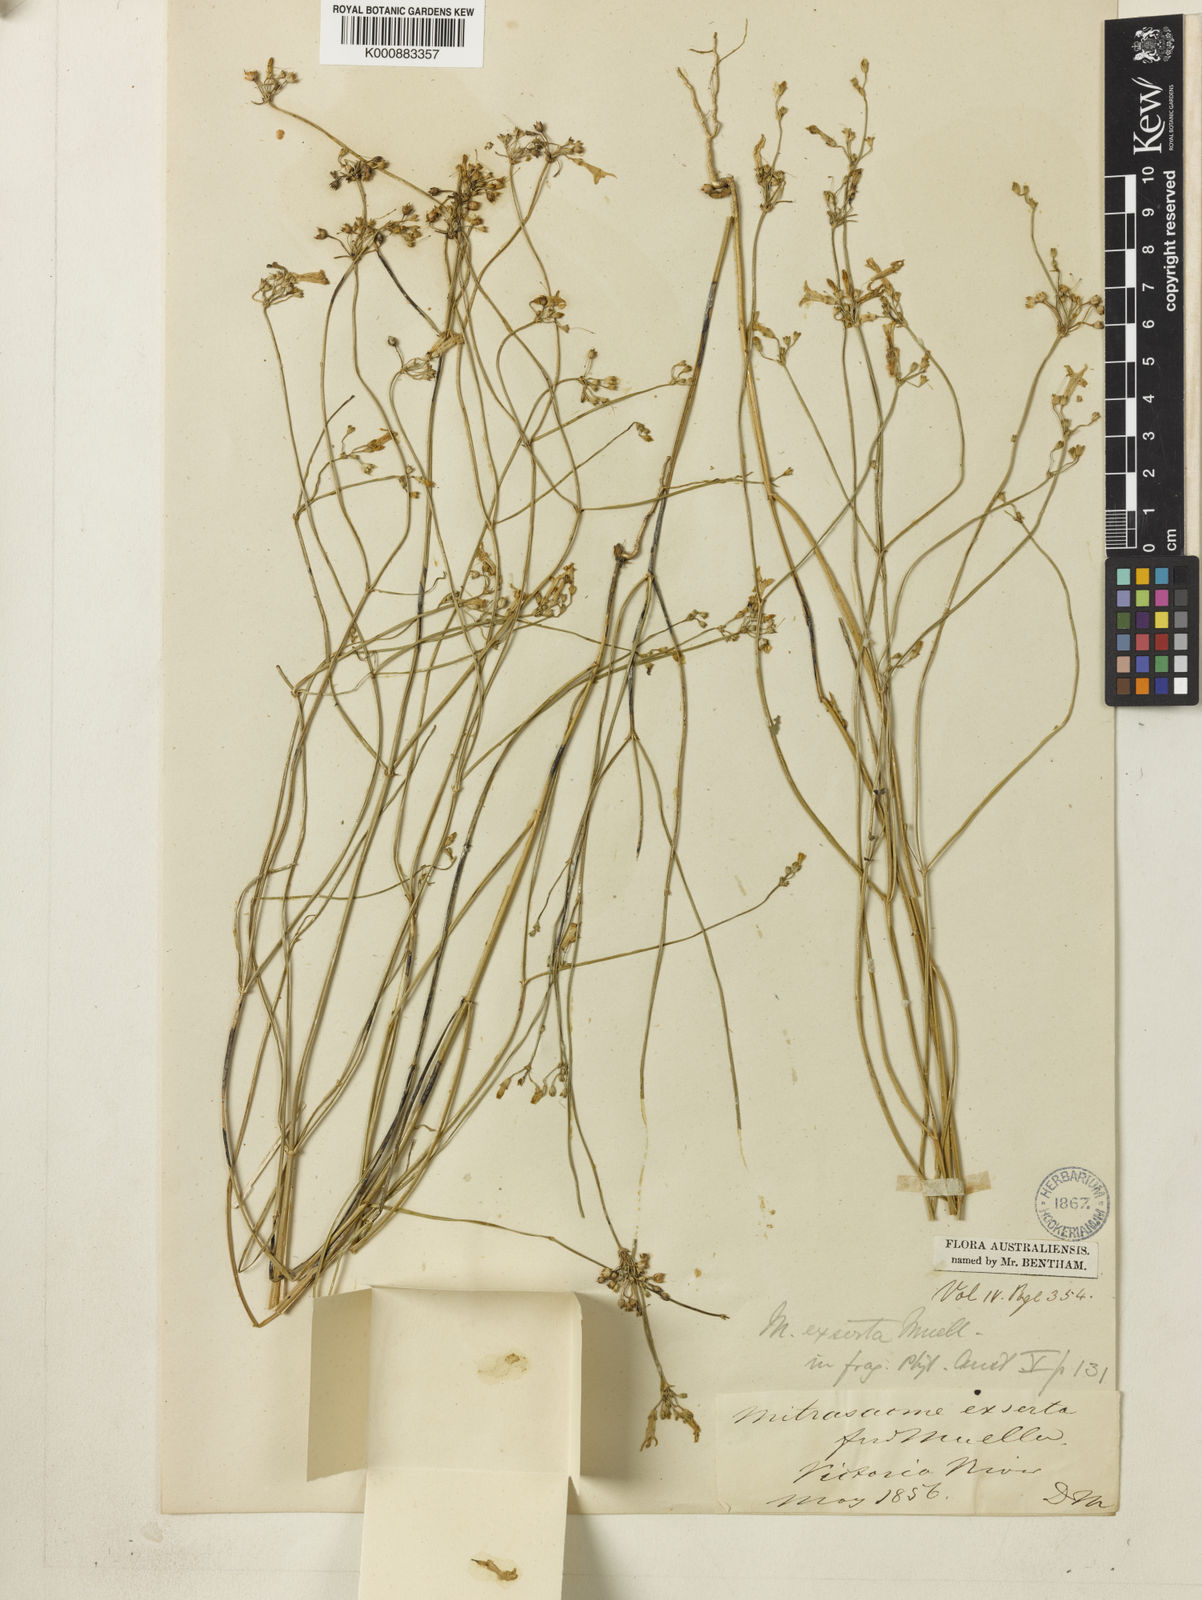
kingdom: Plantae
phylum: Tracheophyta
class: Magnoliopsida
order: Gentianales
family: Loganiaceae
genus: Mitrasacme
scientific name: Mitrasacme exserta
